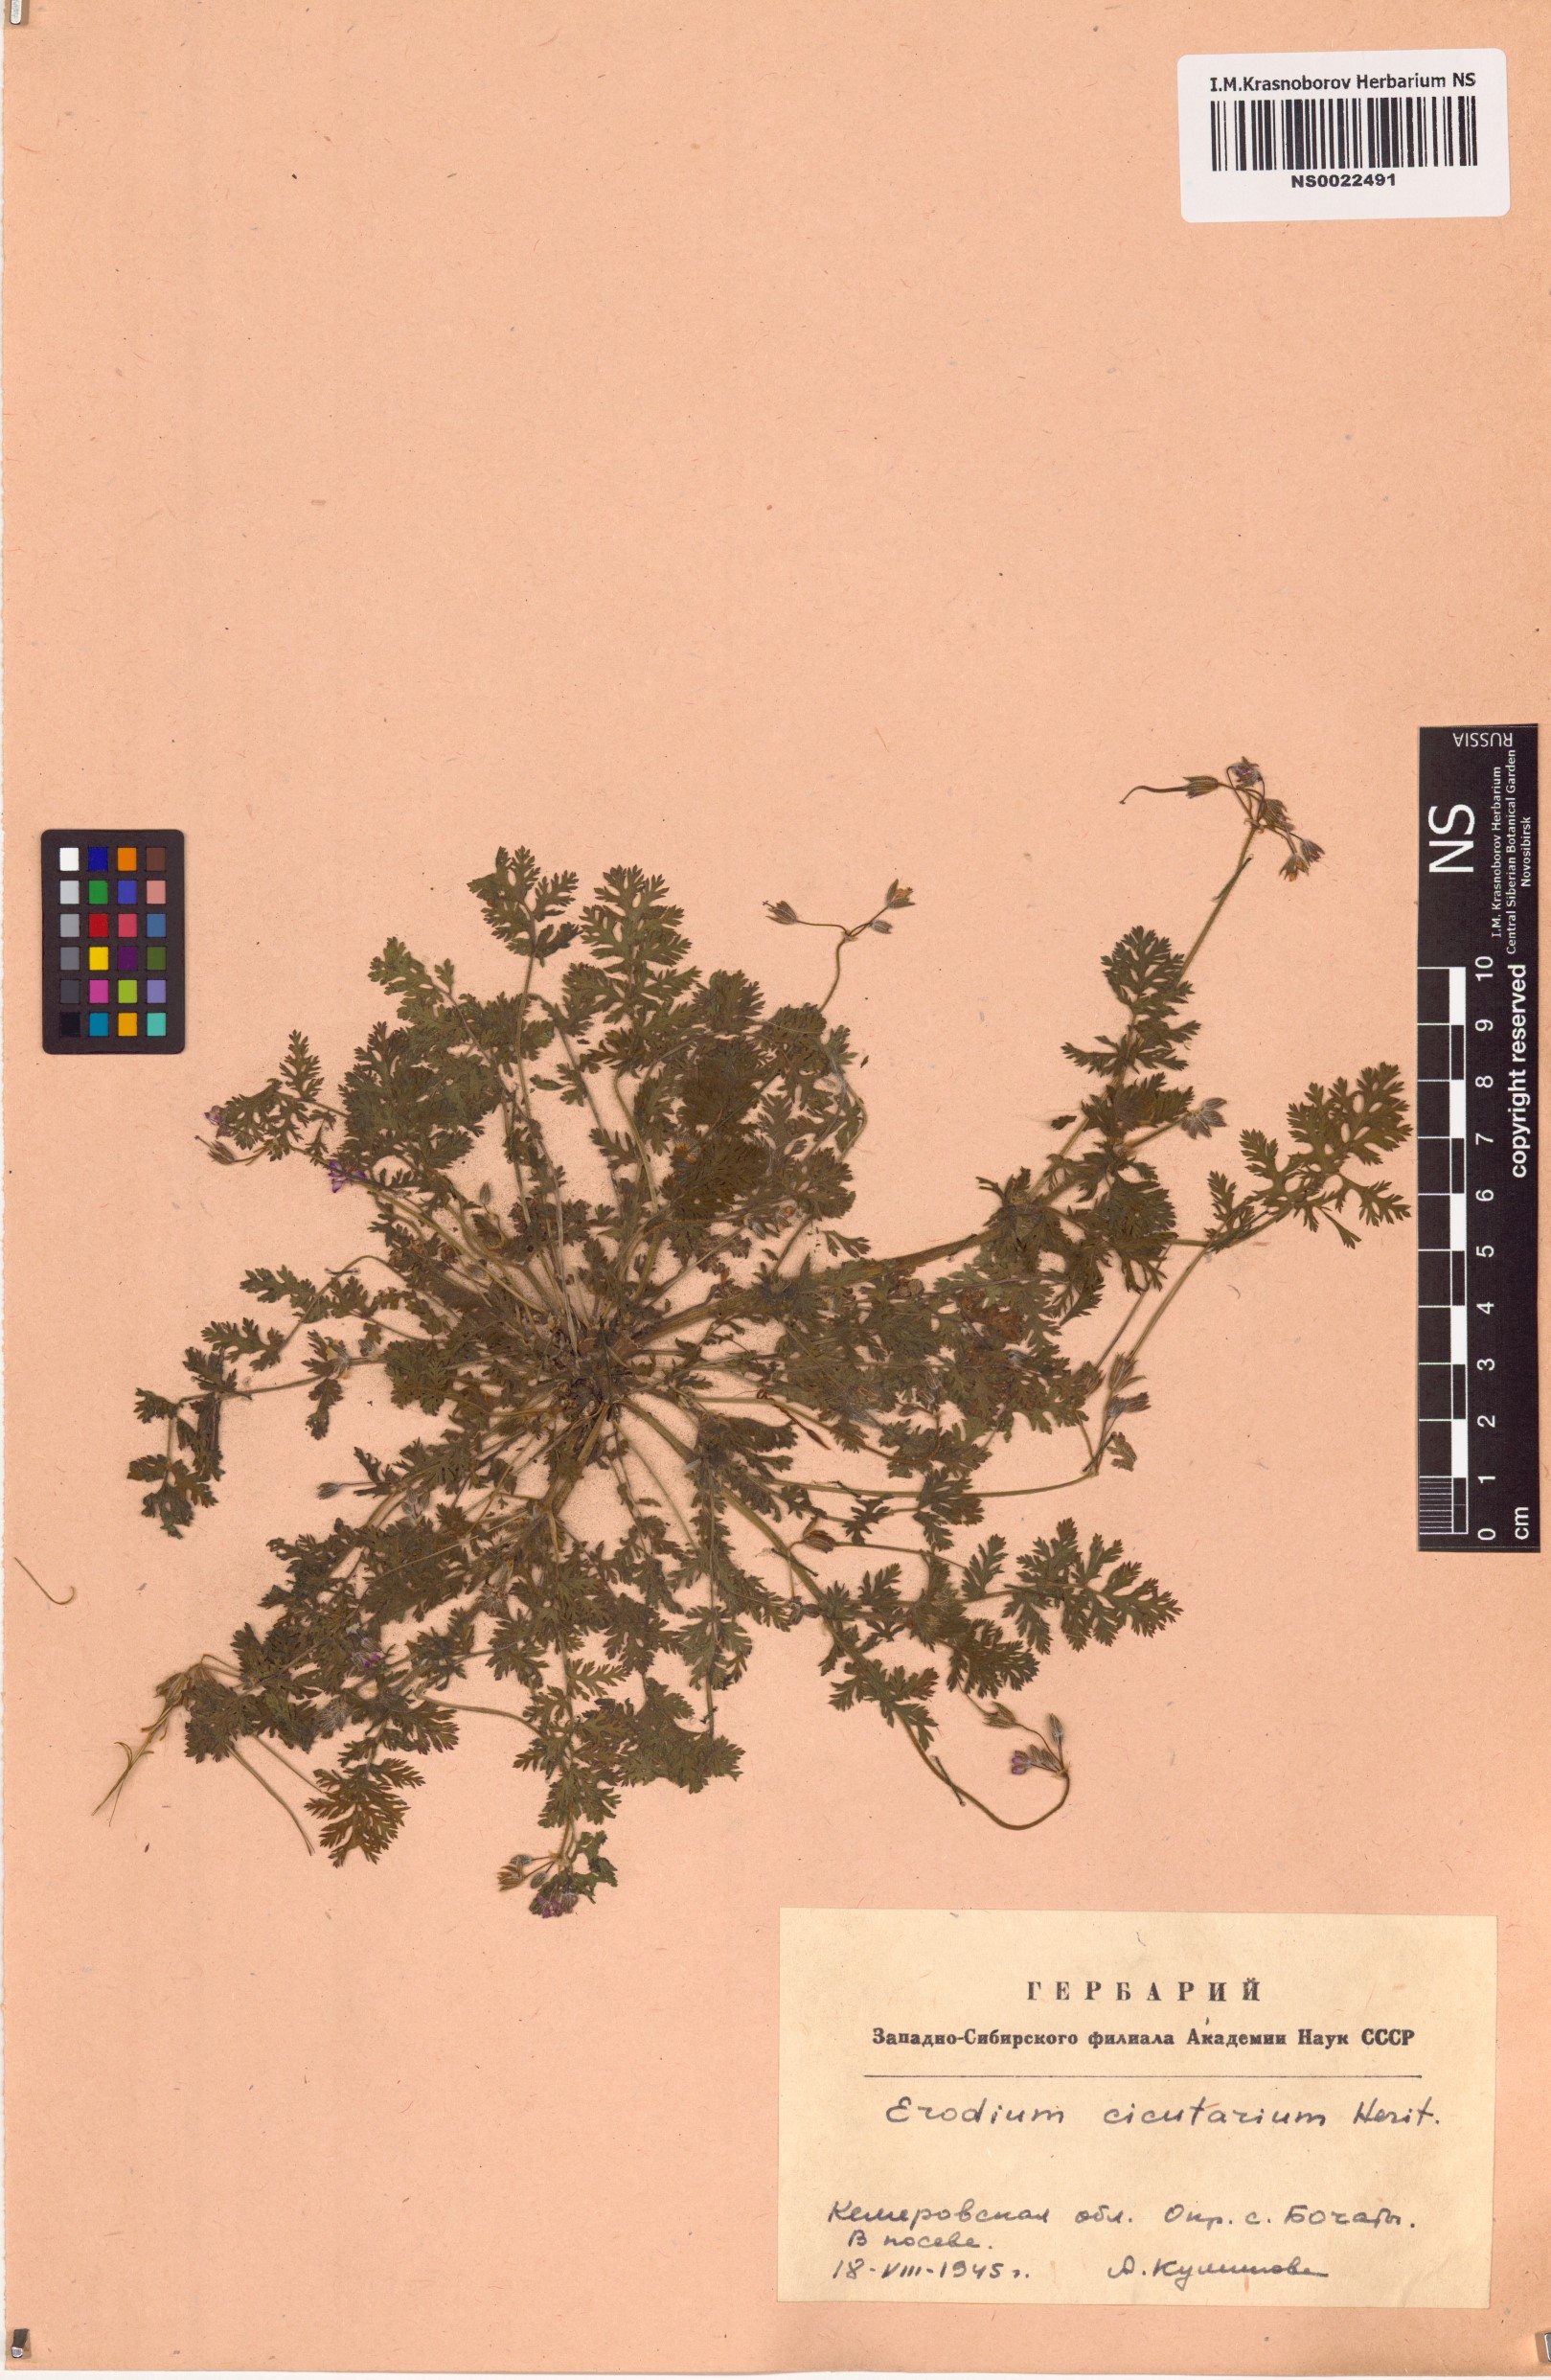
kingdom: Plantae
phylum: Tracheophyta
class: Magnoliopsida
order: Geraniales
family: Geraniaceae
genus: Erodium
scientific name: Erodium cicutarium
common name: Common stork's-bill
